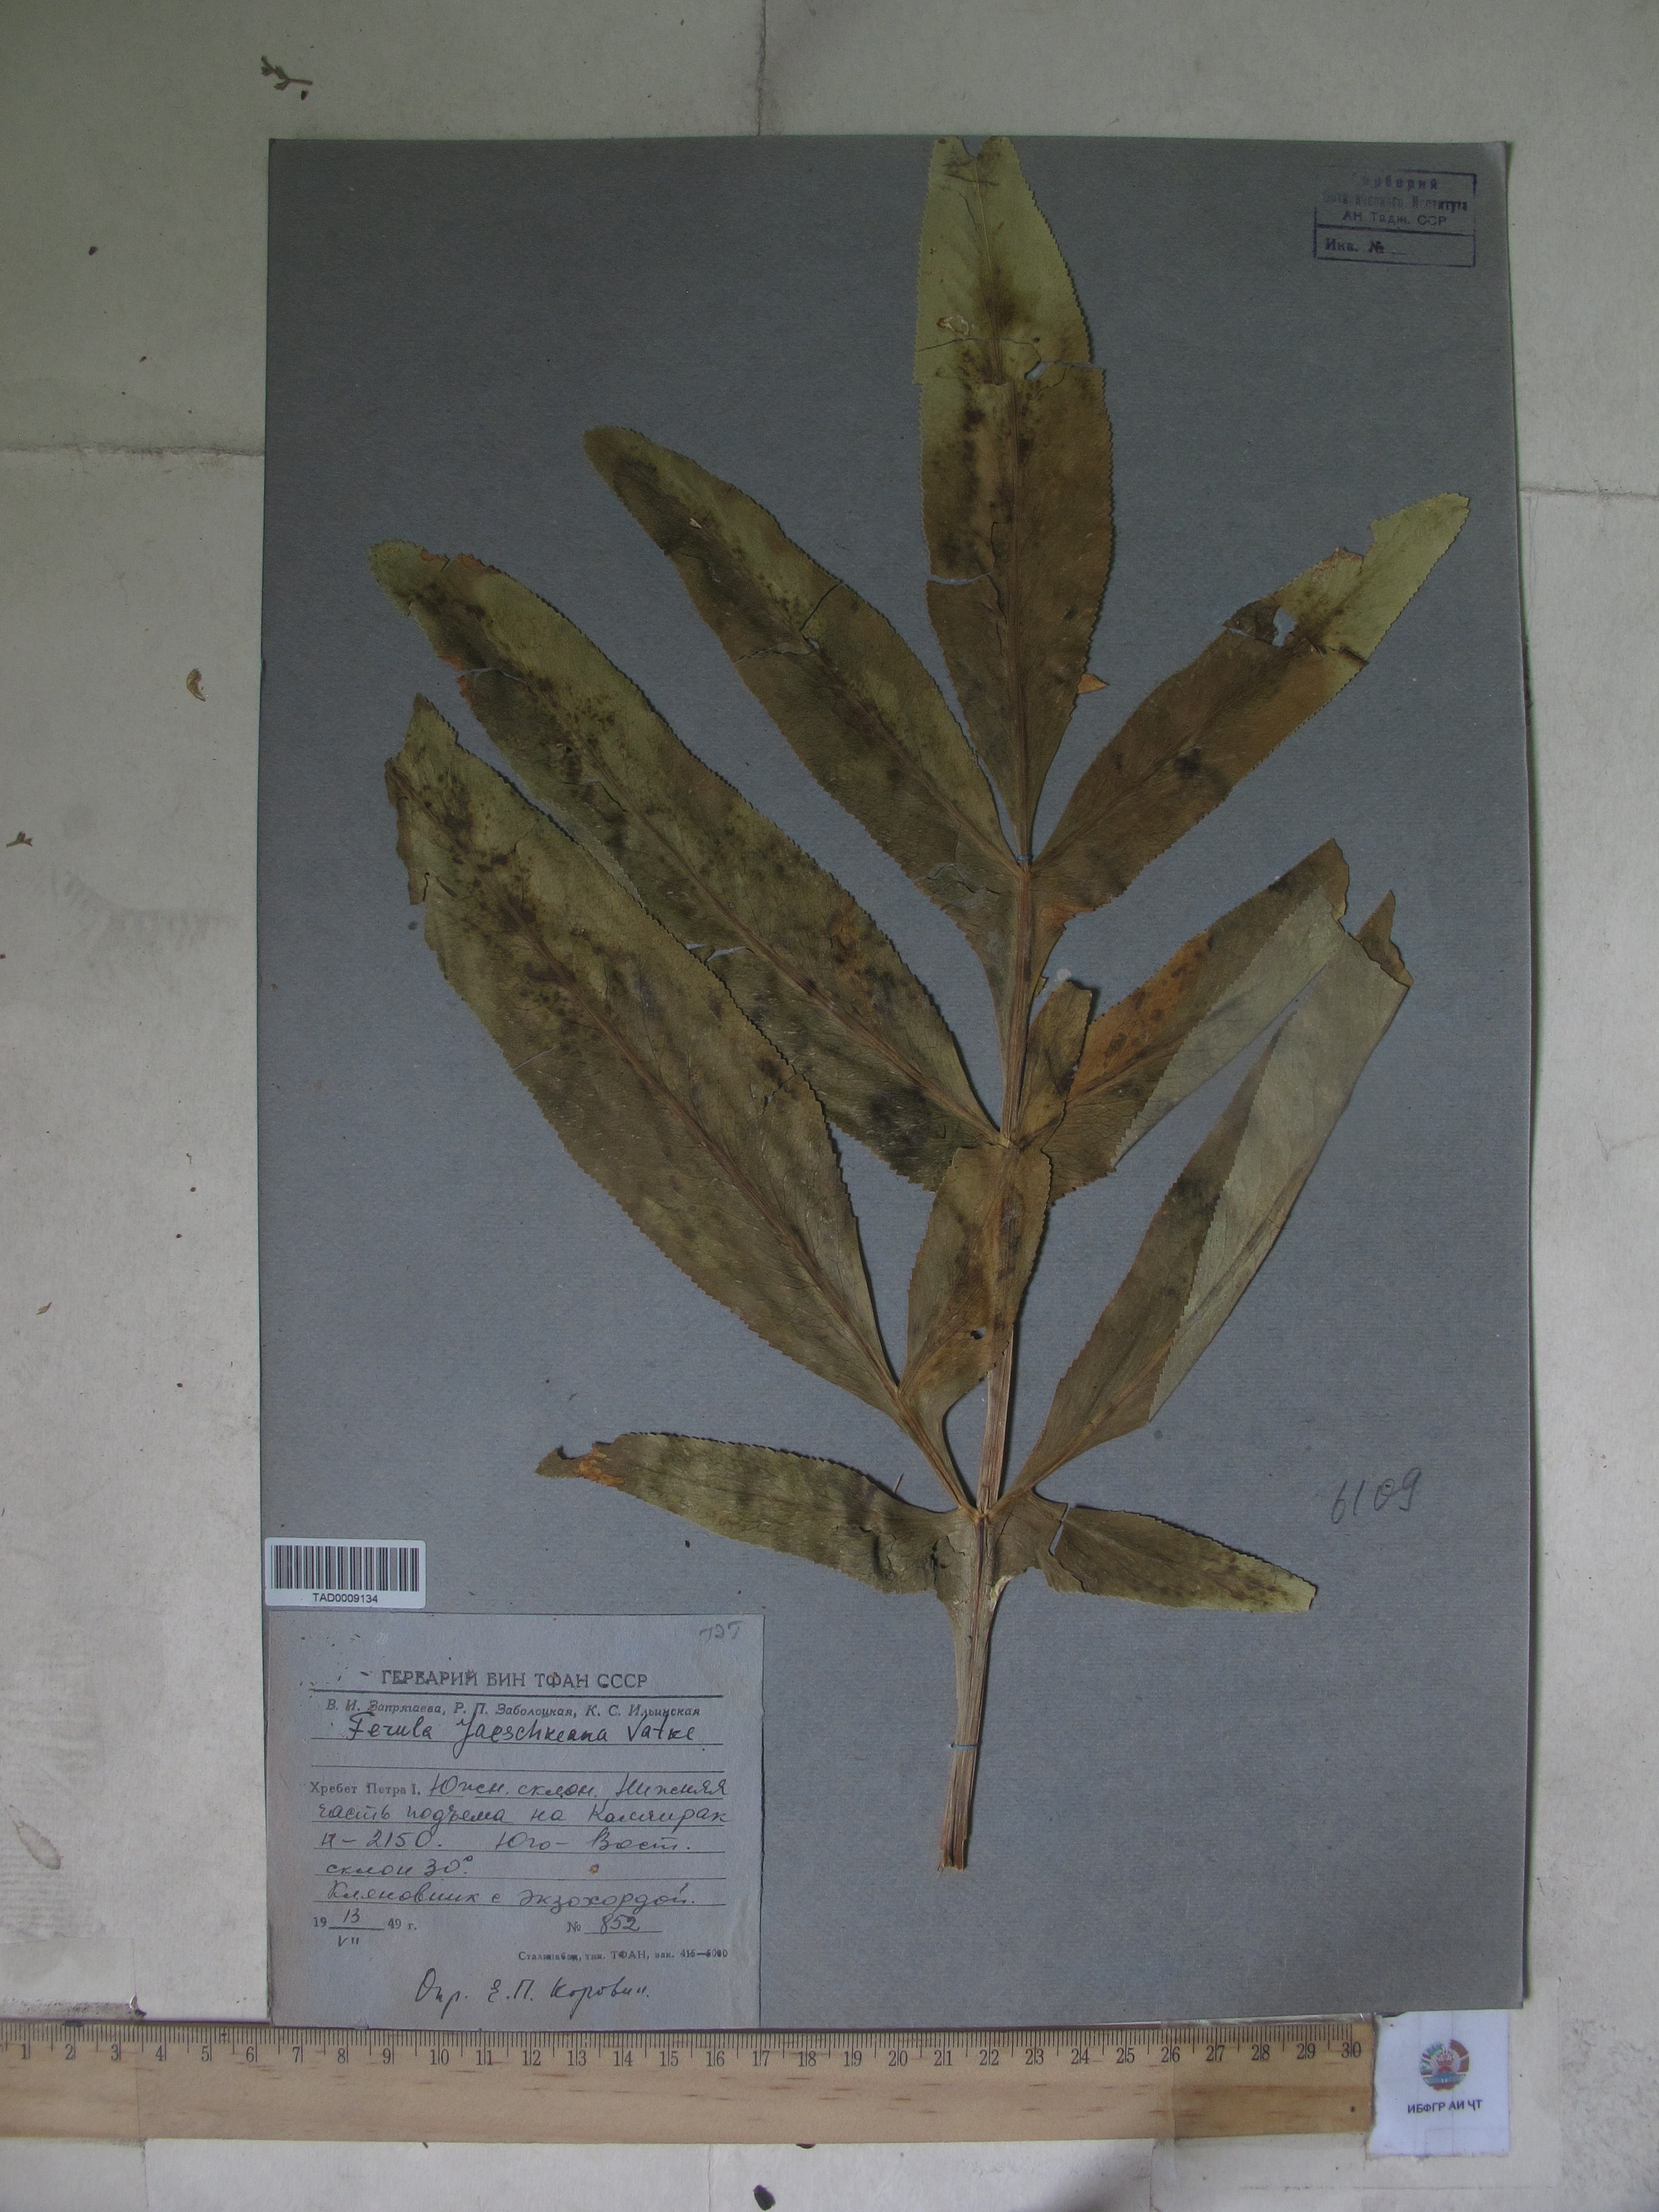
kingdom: Plantae
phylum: Tracheophyta
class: Magnoliopsida
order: Apiales
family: Apiaceae
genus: Ferula
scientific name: Ferula jaeschkeana
